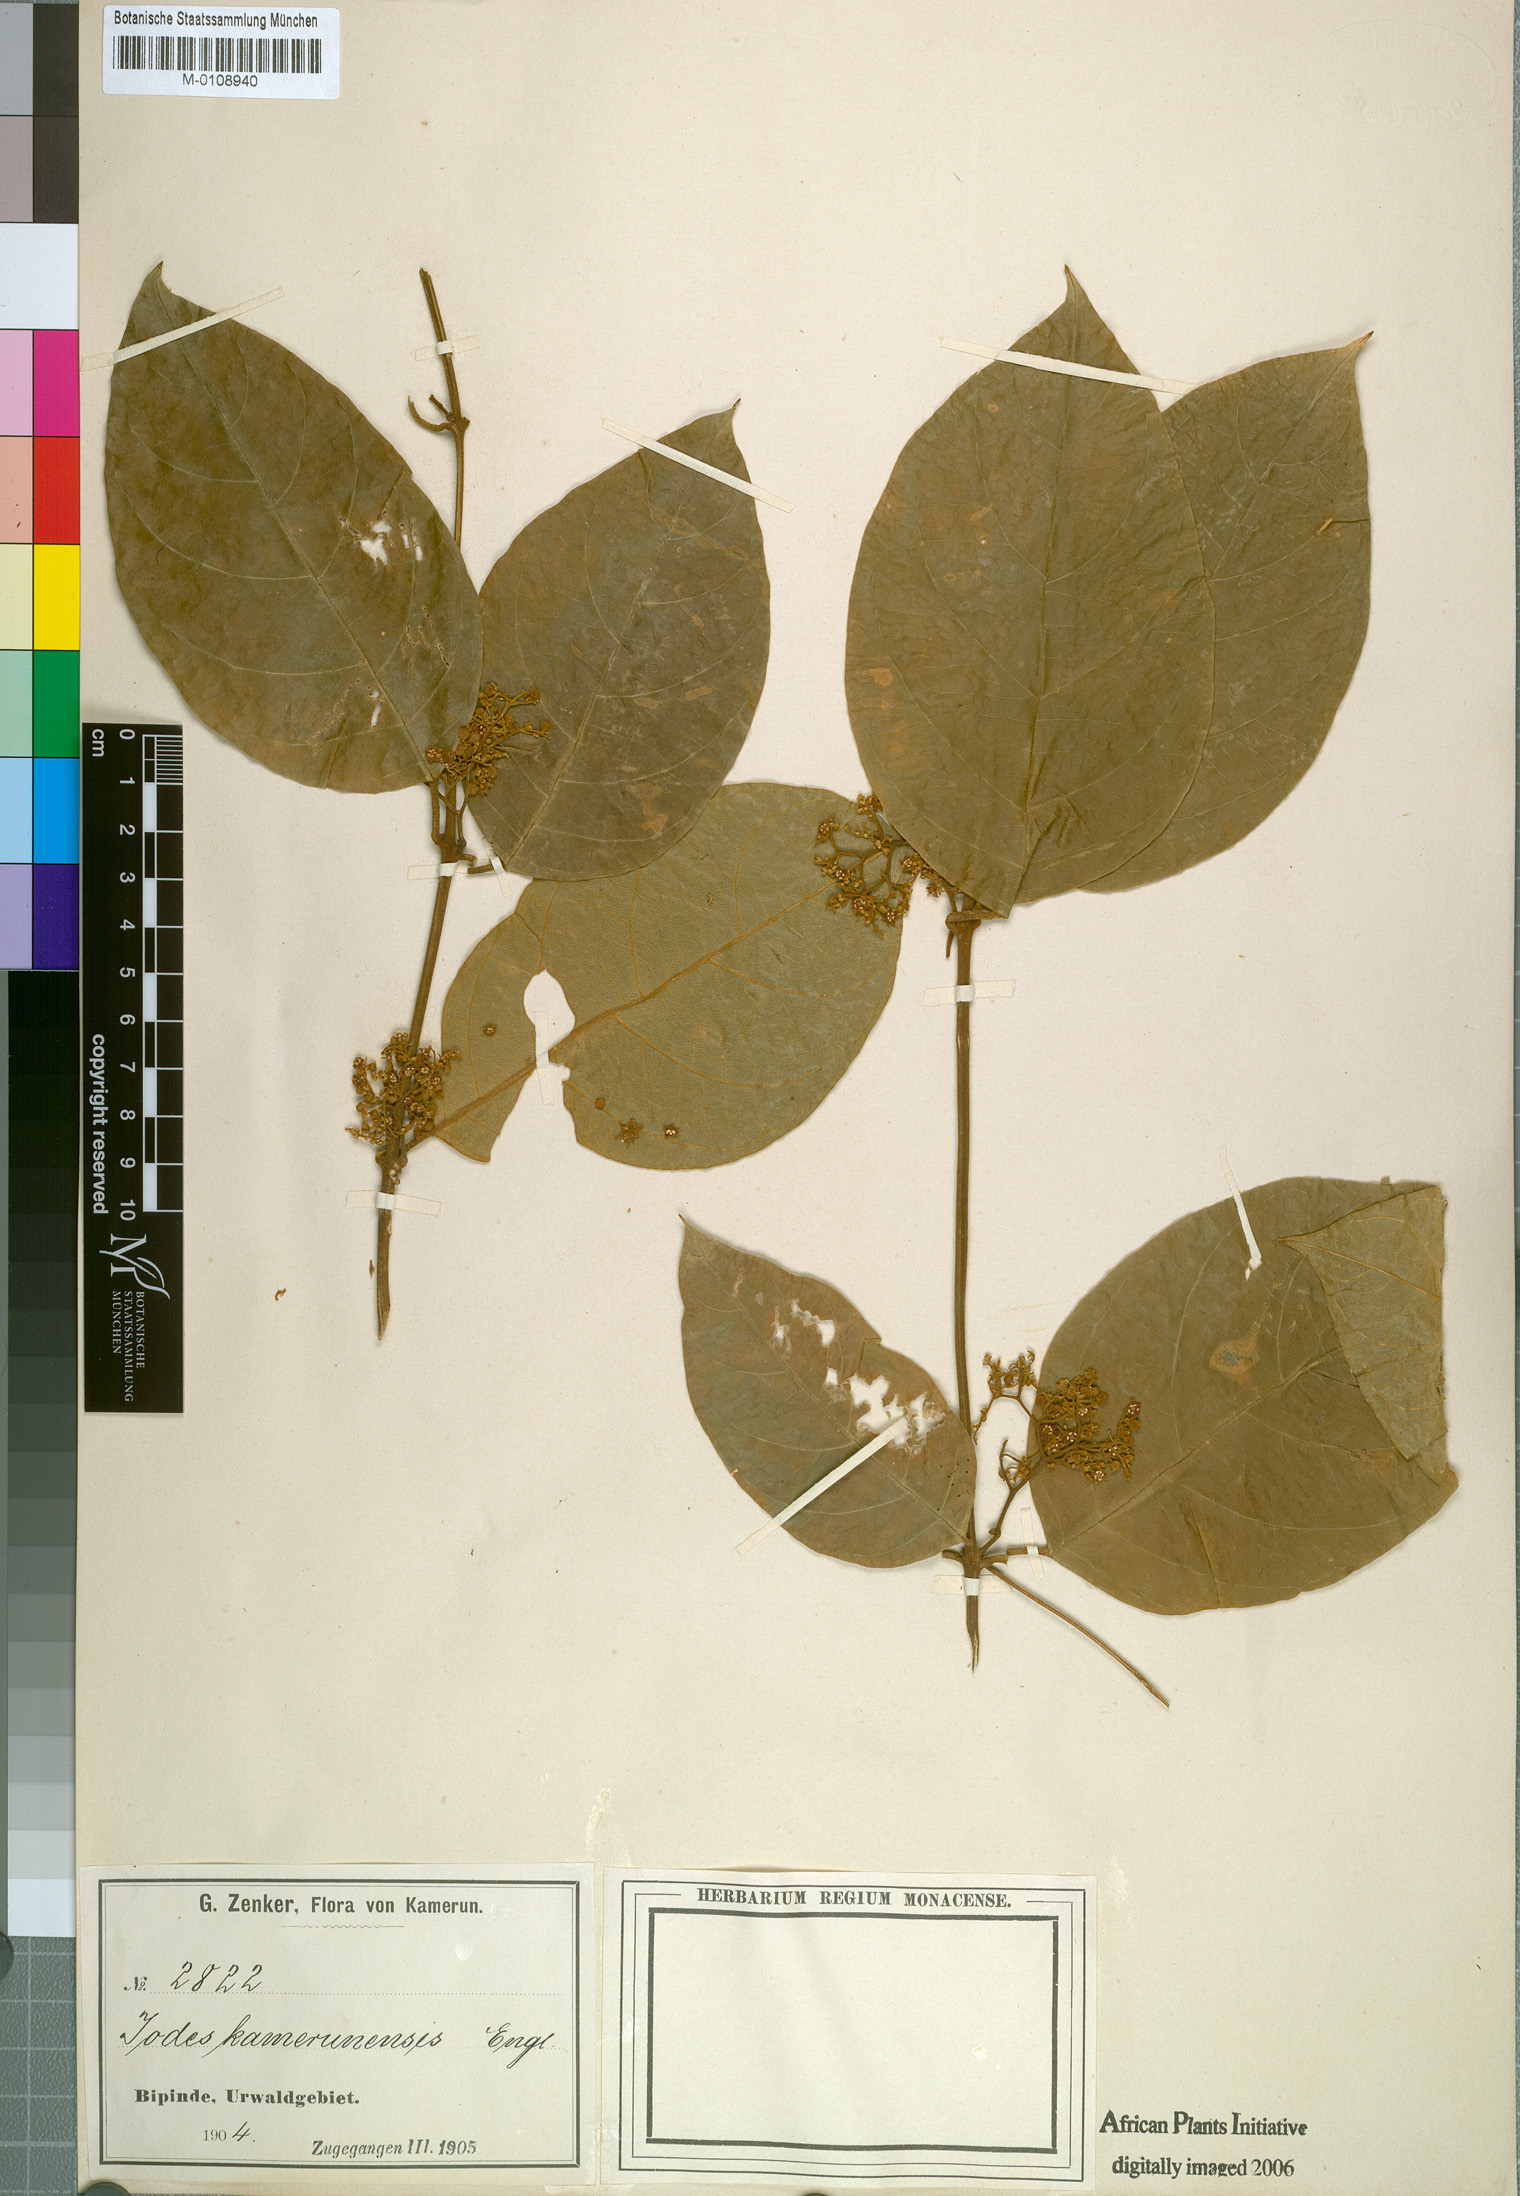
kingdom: Plantae
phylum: Tracheophyta
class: Magnoliopsida
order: Icacinales
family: Icacinaceae
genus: Iodes
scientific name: Iodes kamerunensis
